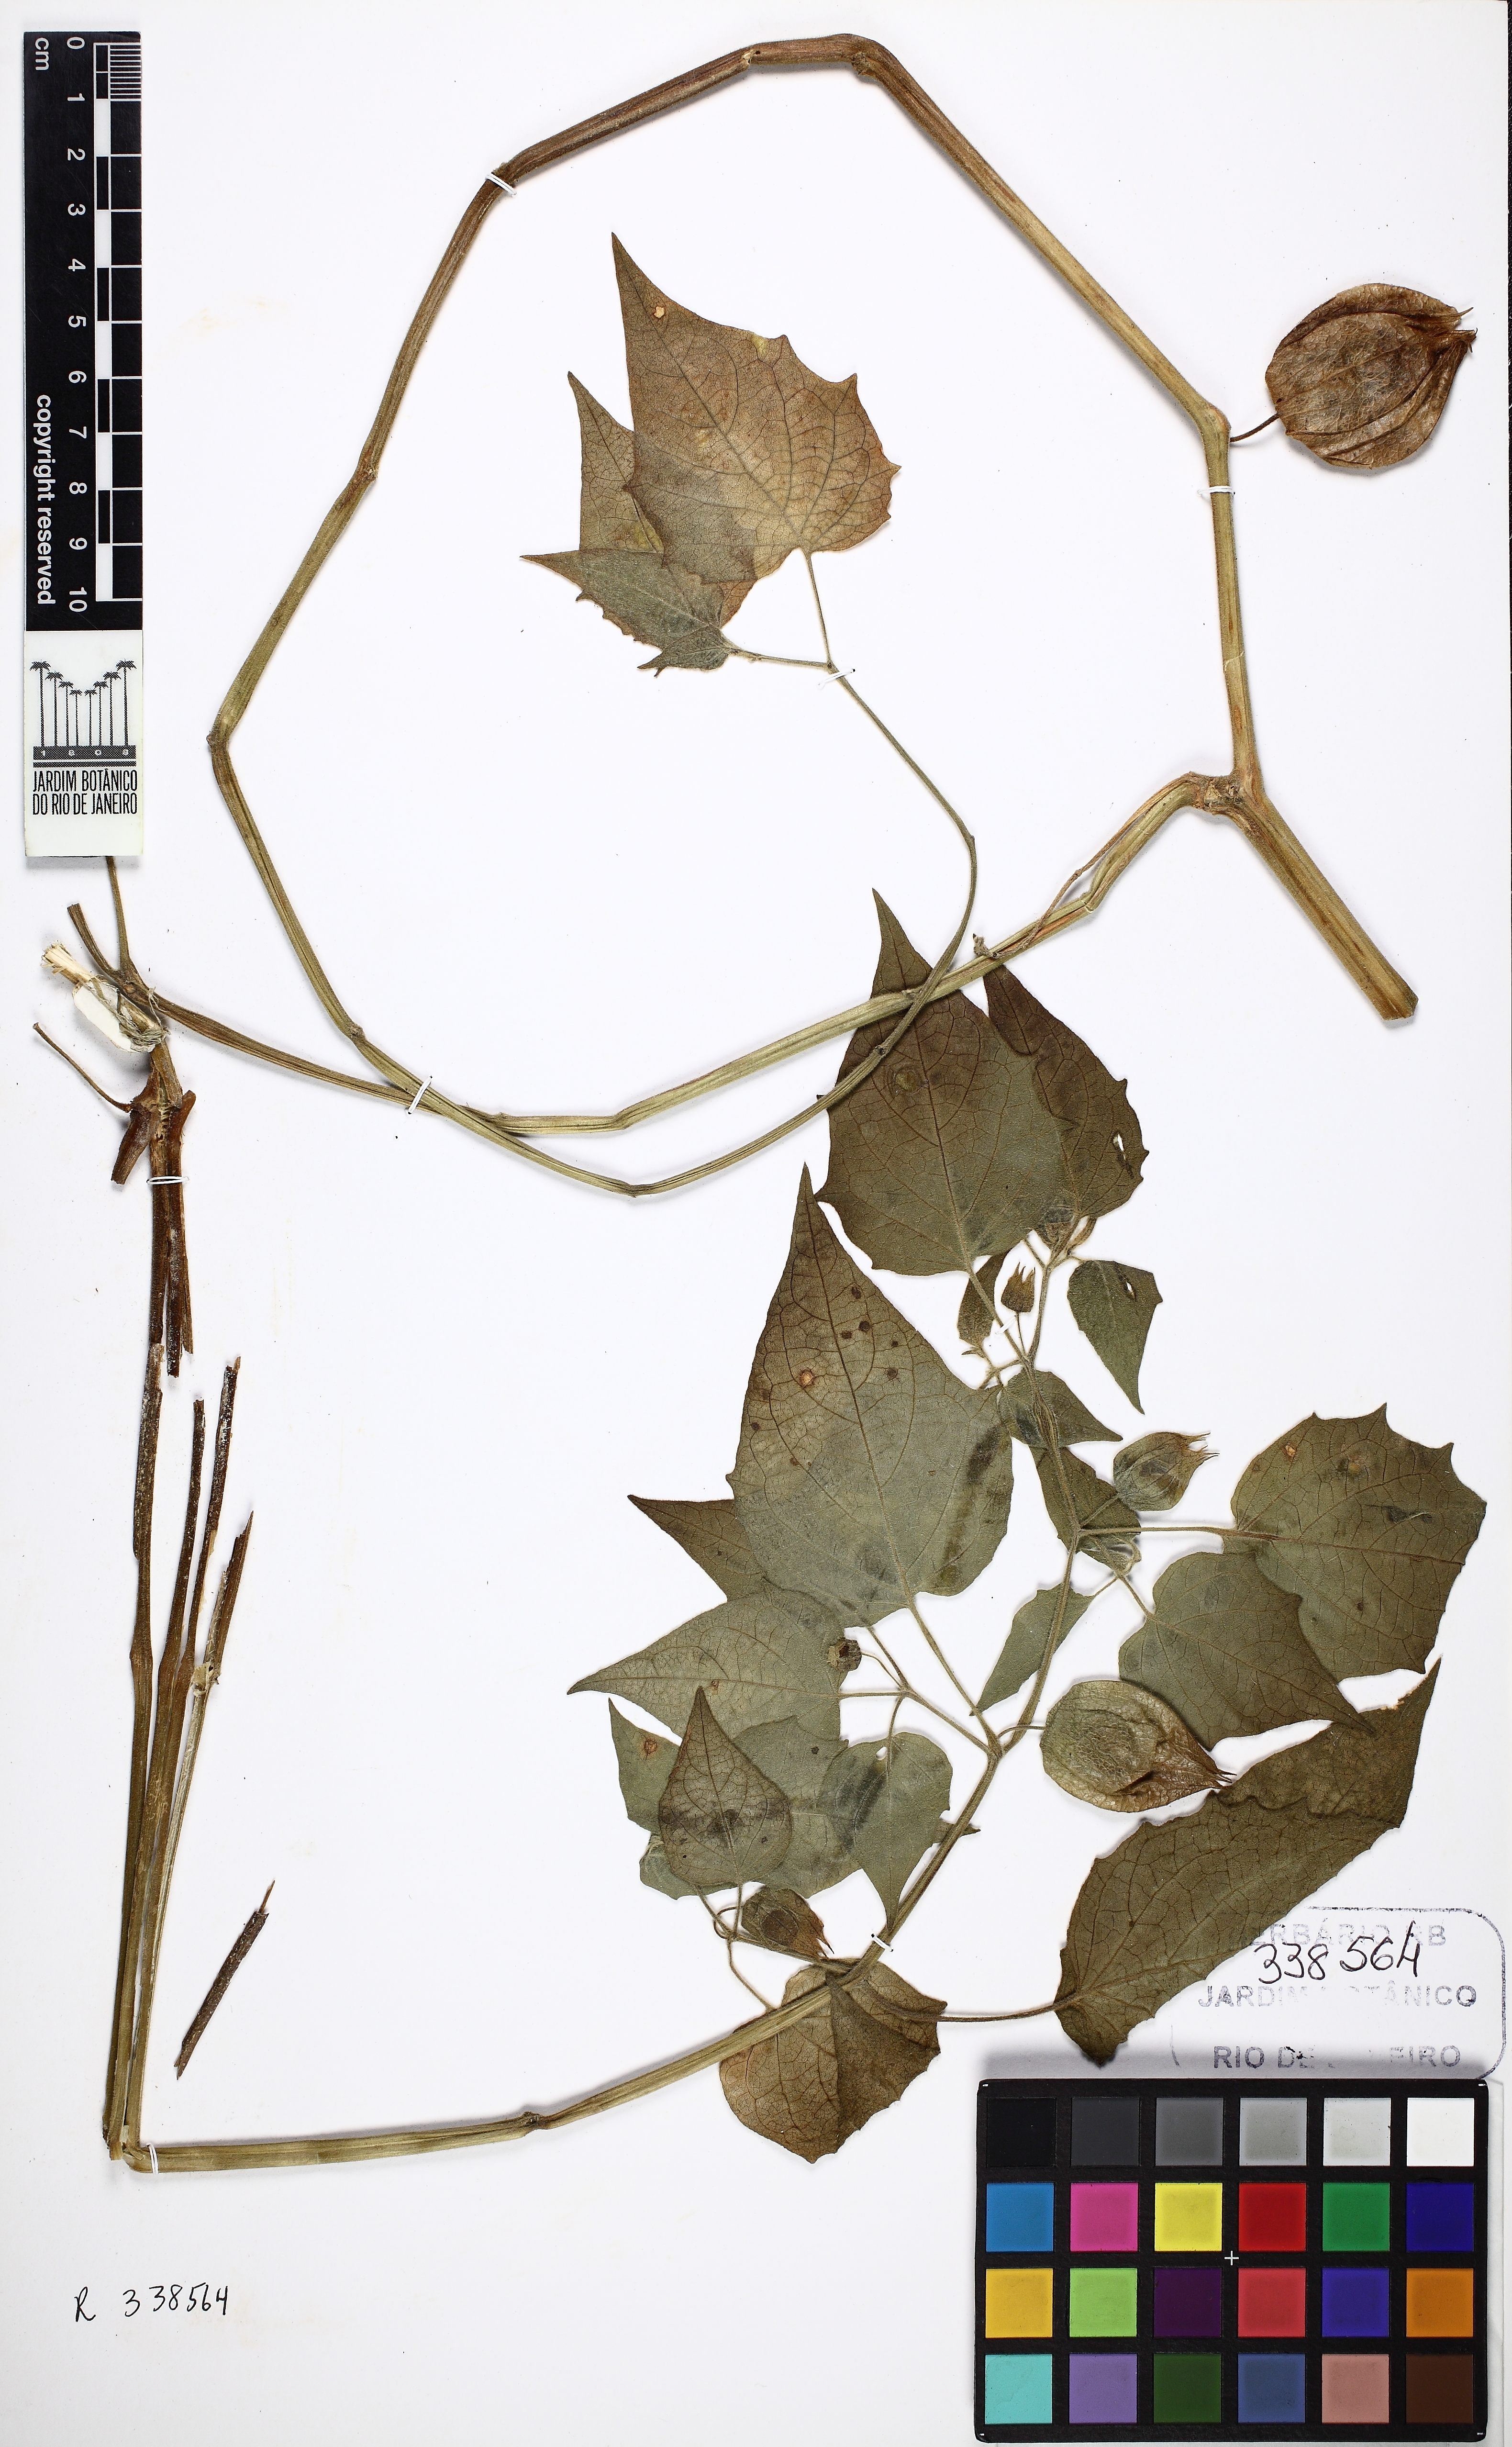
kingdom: Plantae
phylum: Tracheophyta
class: Magnoliopsida
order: Solanales
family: Solanaceae
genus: Physalis
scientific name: Physalis peruviana
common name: Cape-gooseberry
